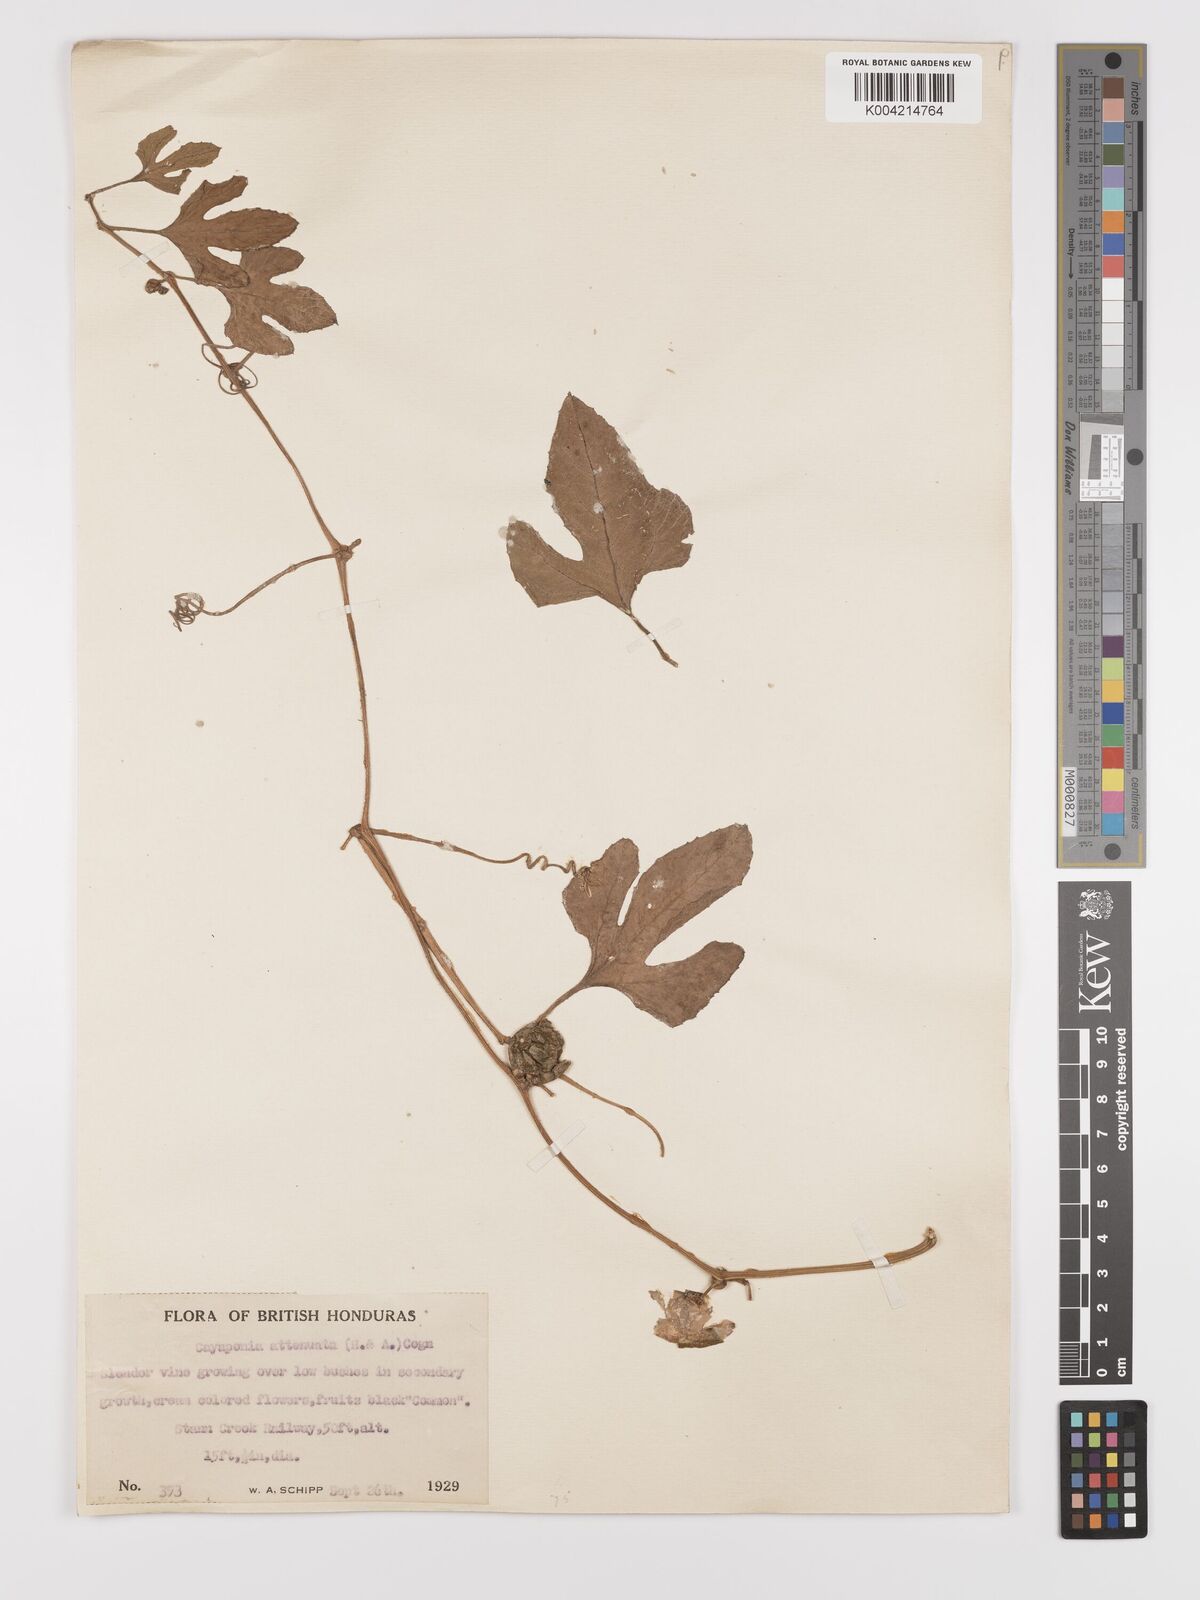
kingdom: Plantae
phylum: Tracheophyta
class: Magnoliopsida
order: Cucurbitales
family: Cucurbitaceae
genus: Cayaponia
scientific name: Cayaponia attenuata
